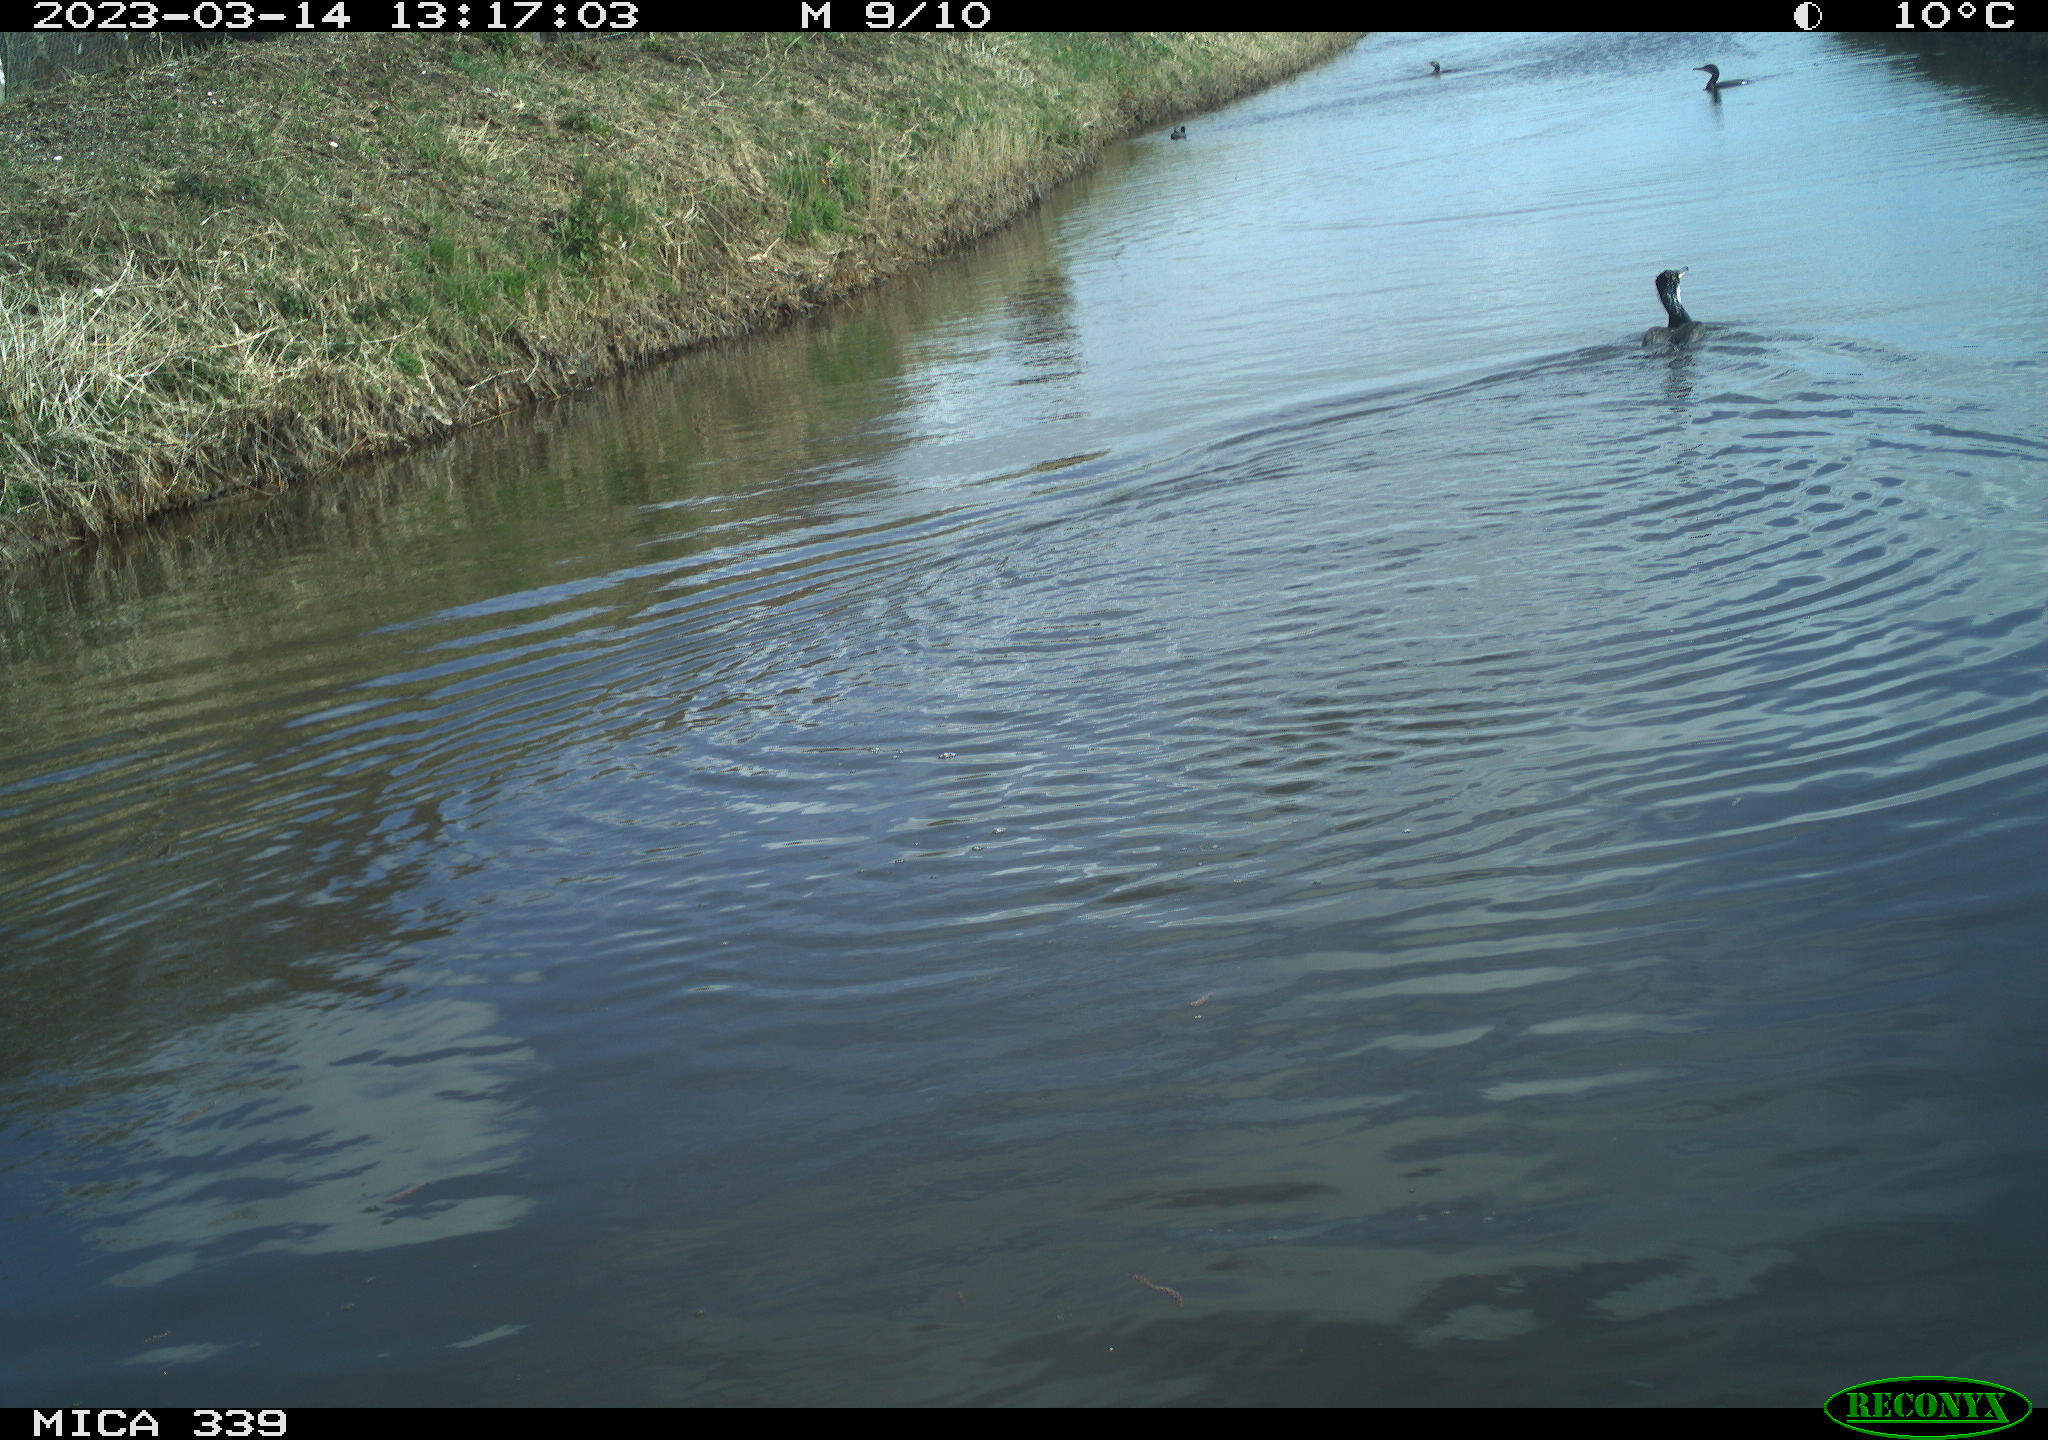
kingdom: Animalia
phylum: Chordata
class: Aves
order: Suliformes
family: Phalacrocoracidae
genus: Phalacrocorax
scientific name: Phalacrocorax carbo
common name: Great cormorant
